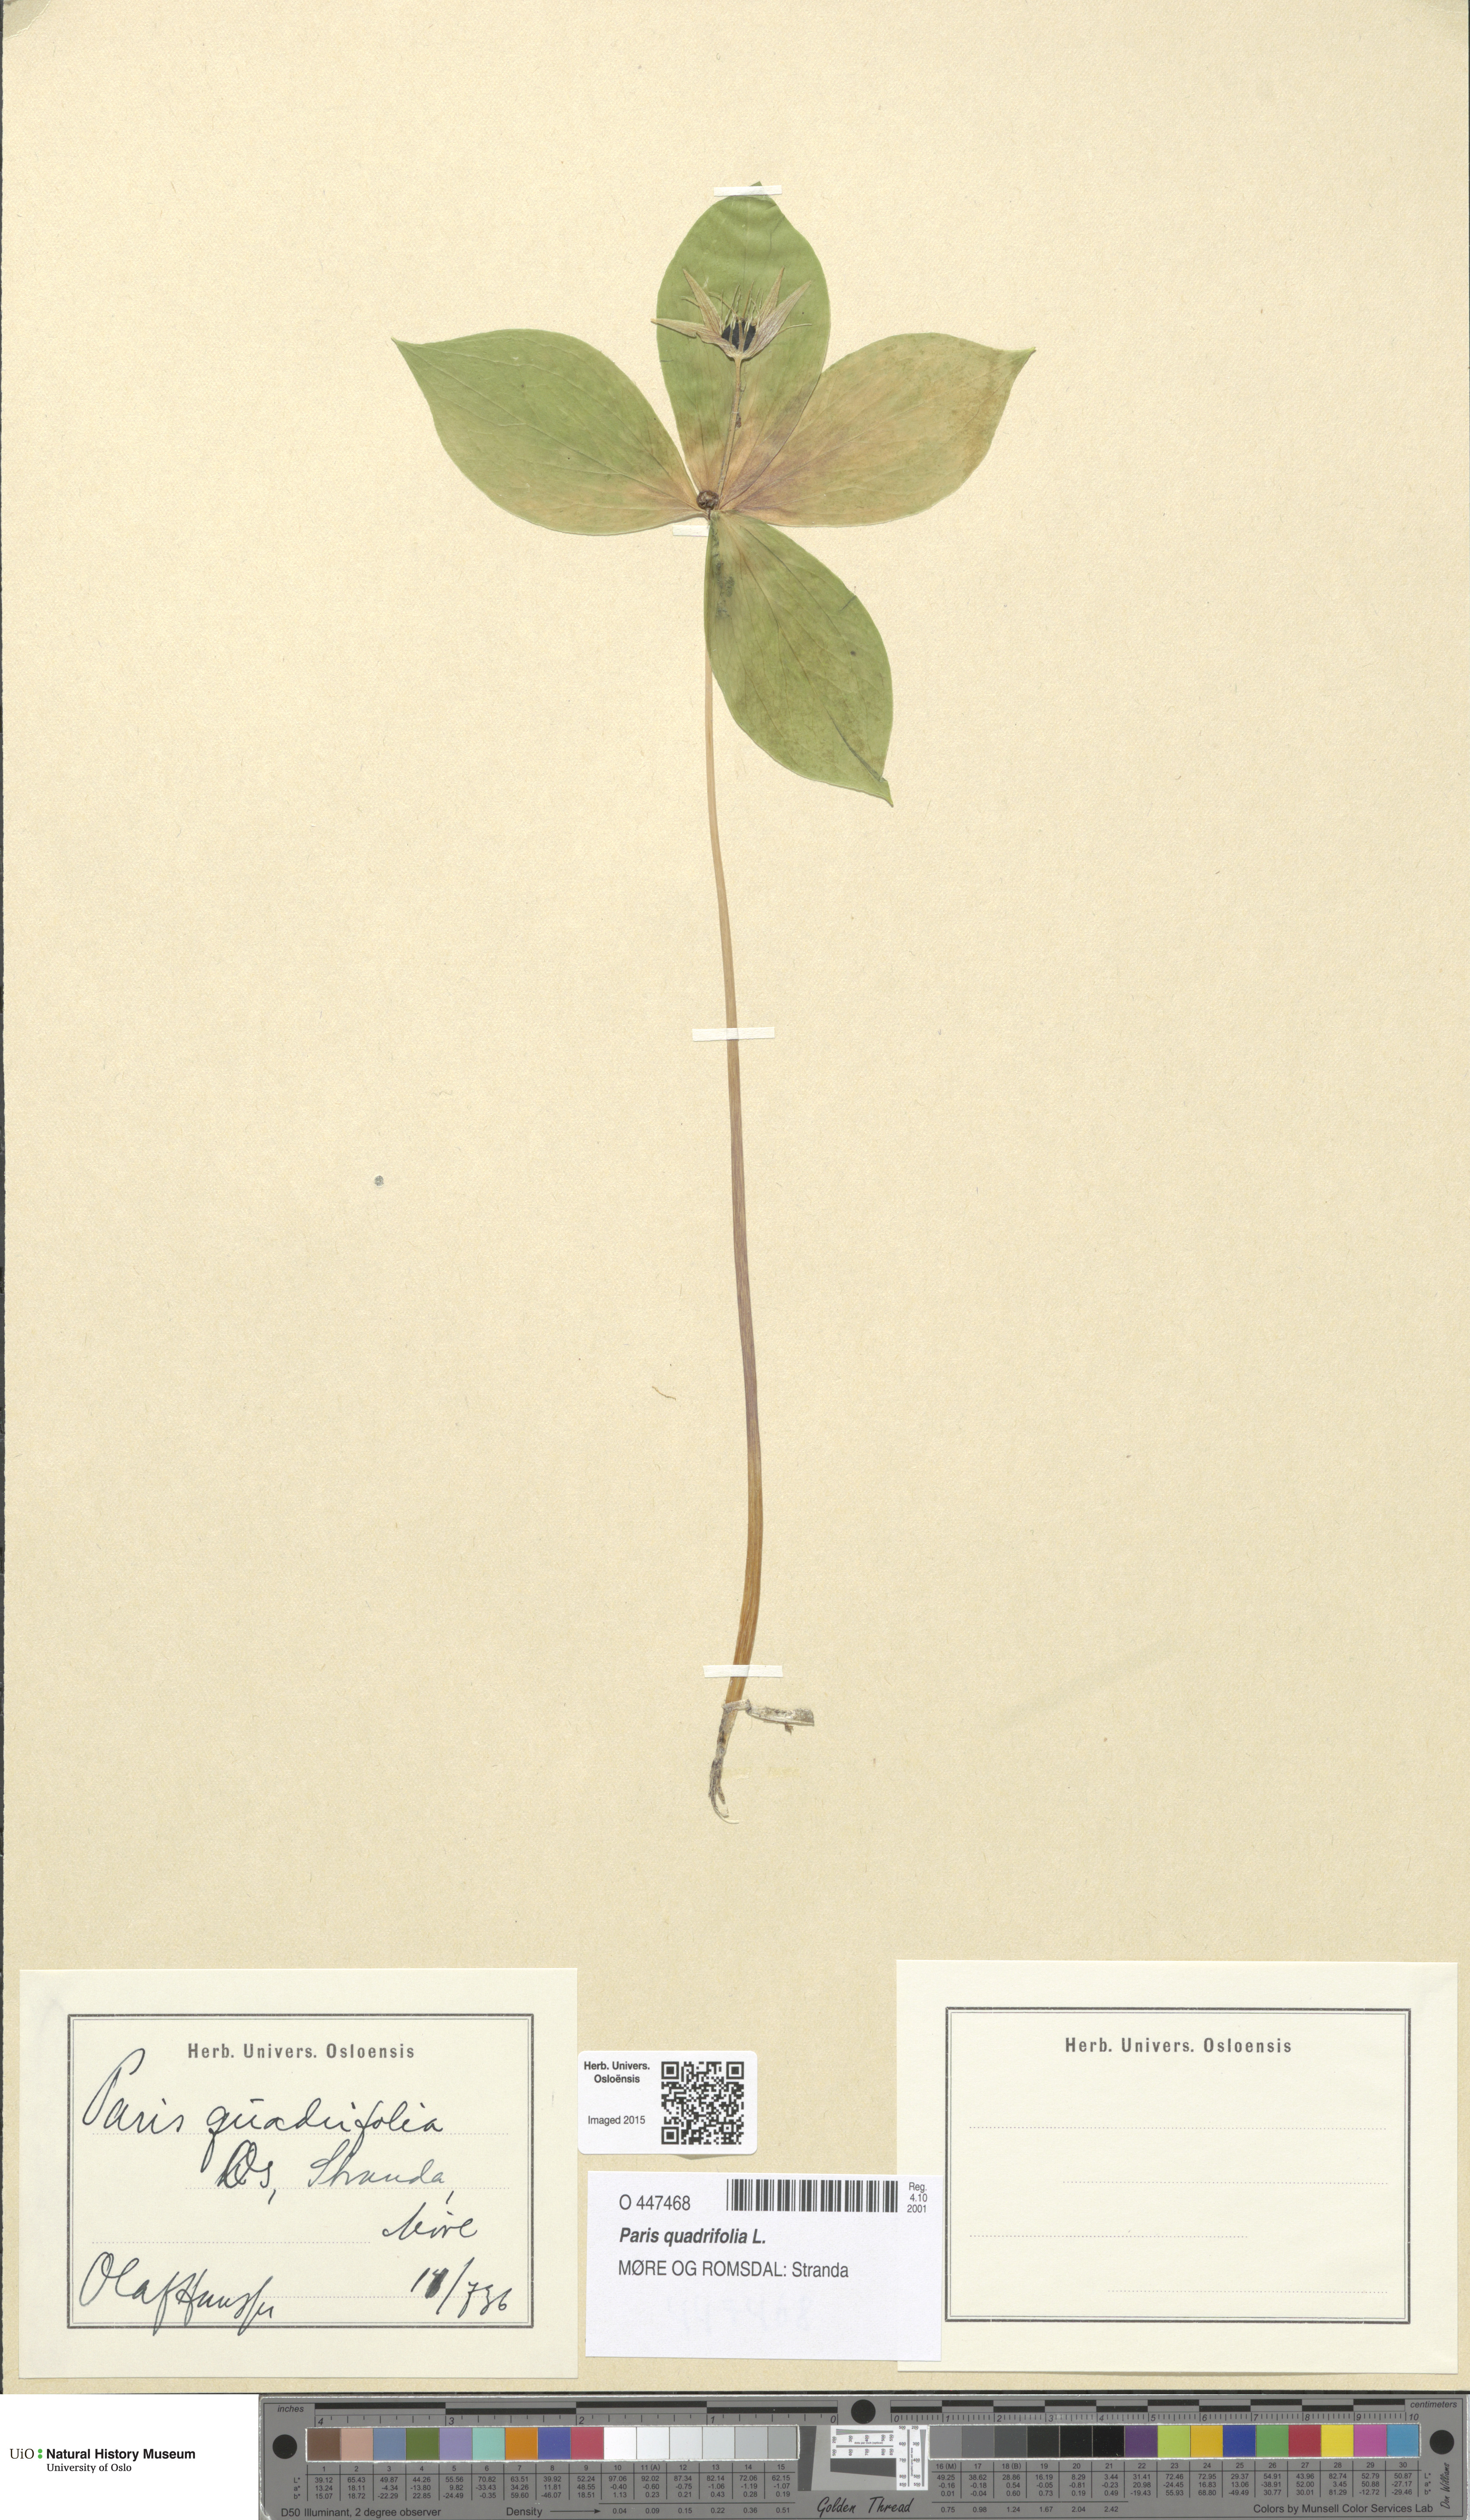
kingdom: Plantae
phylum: Tracheophyta
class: Liliopsida
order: Liliales
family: Melanthiaceae
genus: Paris
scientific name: Paris quadrifolia
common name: Herb-paris
